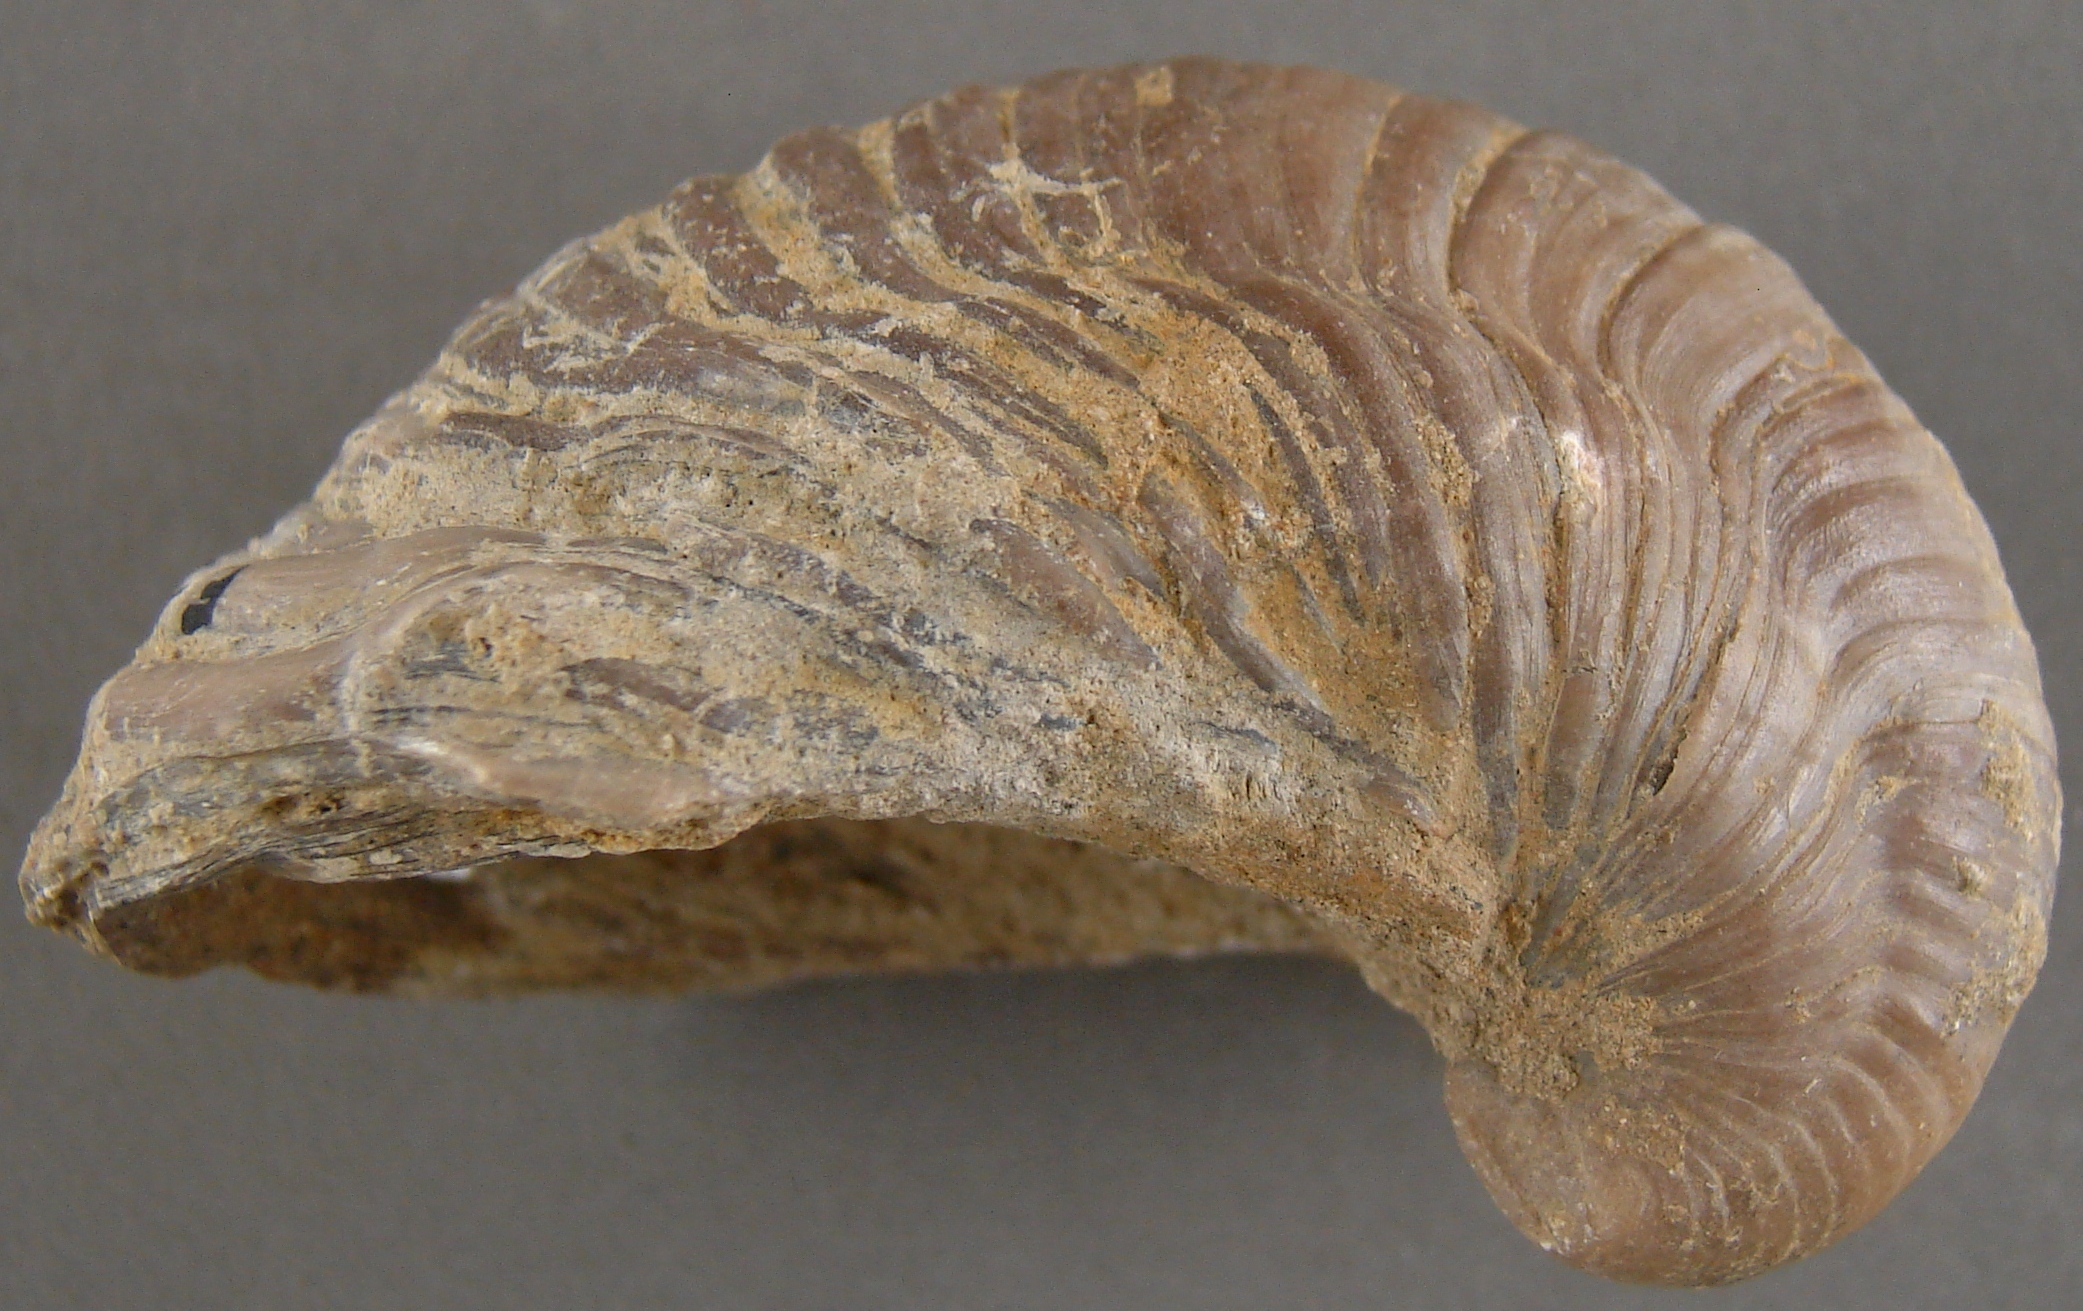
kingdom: Animalia
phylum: Mollusca
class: Bivalvia
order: Ostreida
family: Gryphaeidae
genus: Gryphaea
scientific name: Gryphaea arcuata
